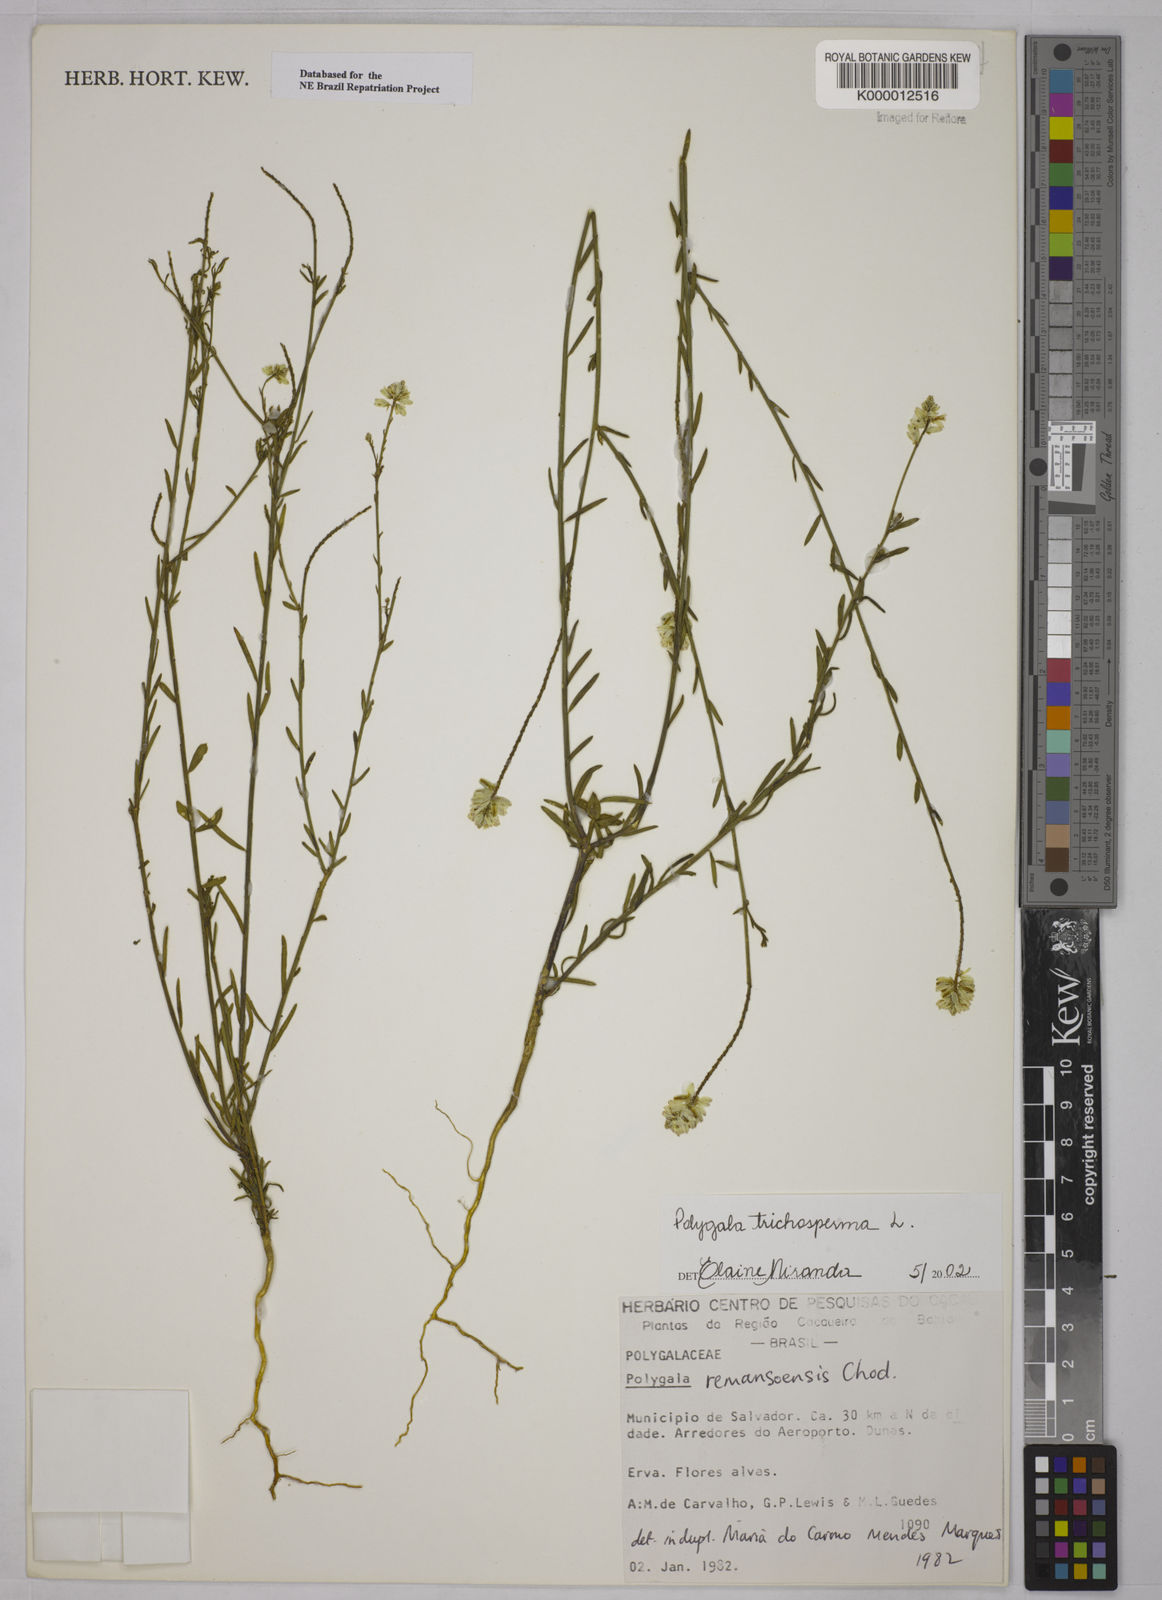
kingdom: Plantae
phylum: Tracheophyta
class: Magnoliopsida
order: Fabales
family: Polygalaceae
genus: Polygala
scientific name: Polygala
